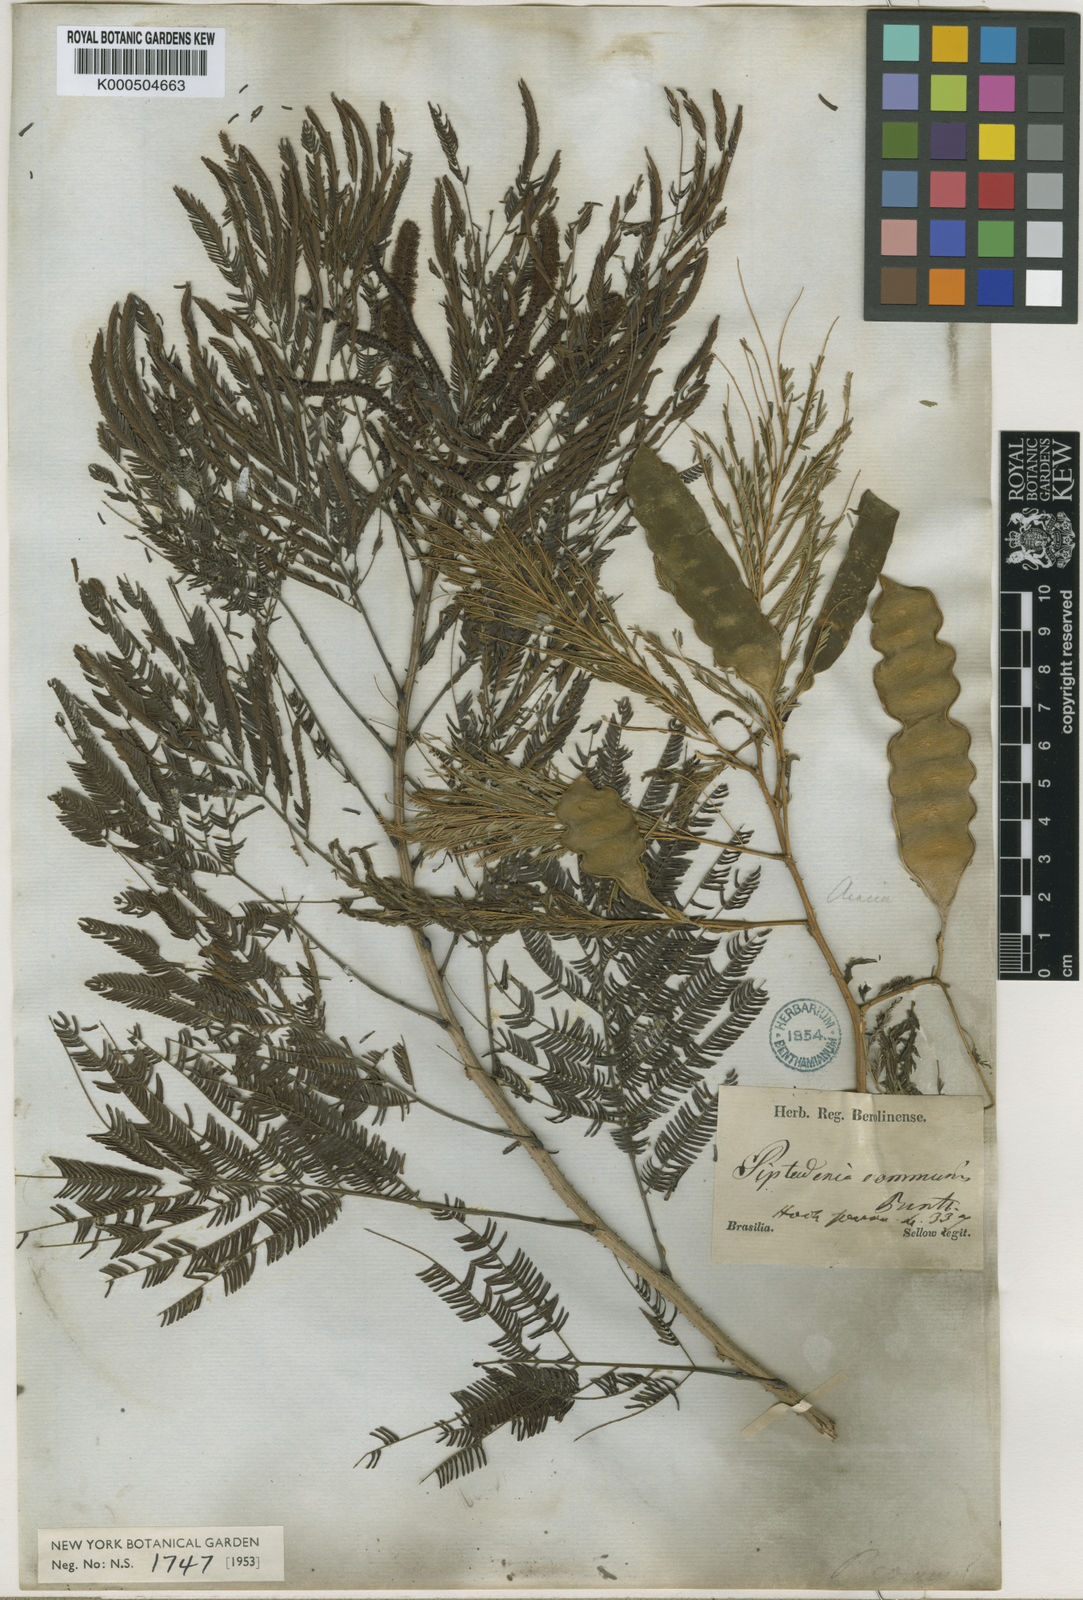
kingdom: Plantae
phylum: Tracheophyta
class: Magnoliopsida
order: Fabales
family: Fabaceae
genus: Piptadenia
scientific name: Piptadenia gonoacantha
